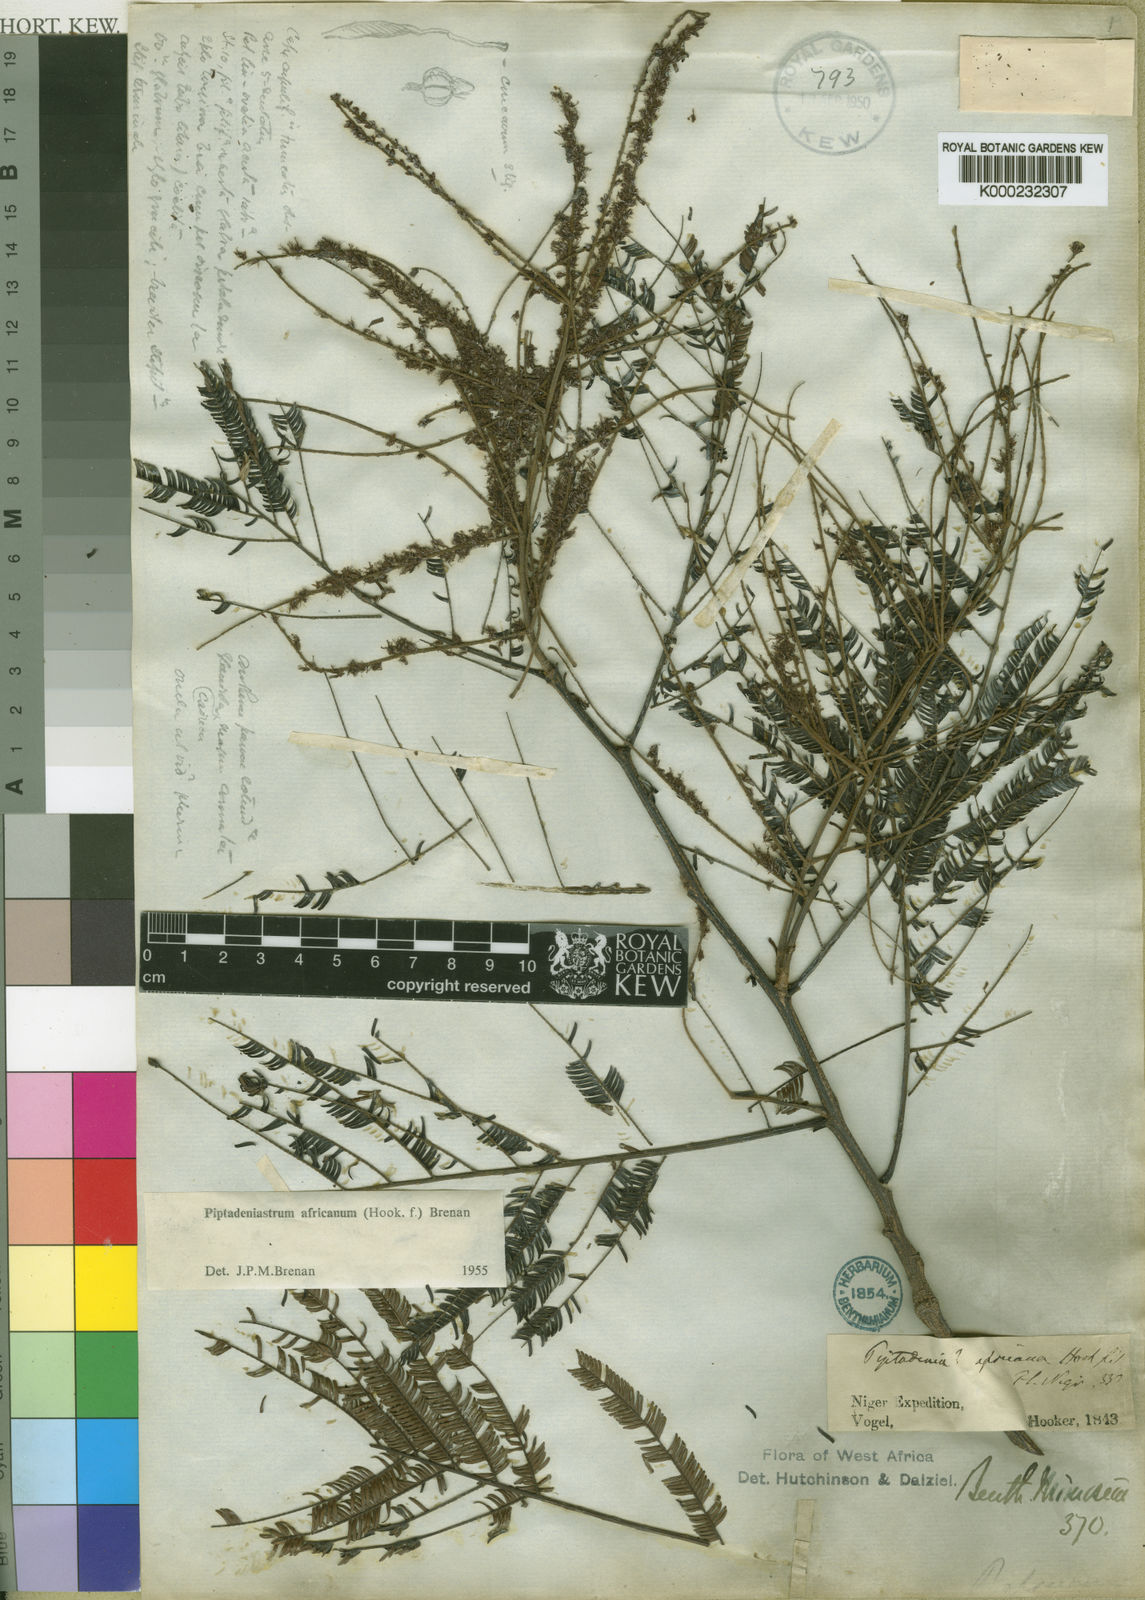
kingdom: Plantae
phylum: Tracheophyta
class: Magnoliopsida
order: Fabales
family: Fabaceae
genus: Piptadeniastrum
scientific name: Piptadeniastrum africanum
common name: African greenheart
